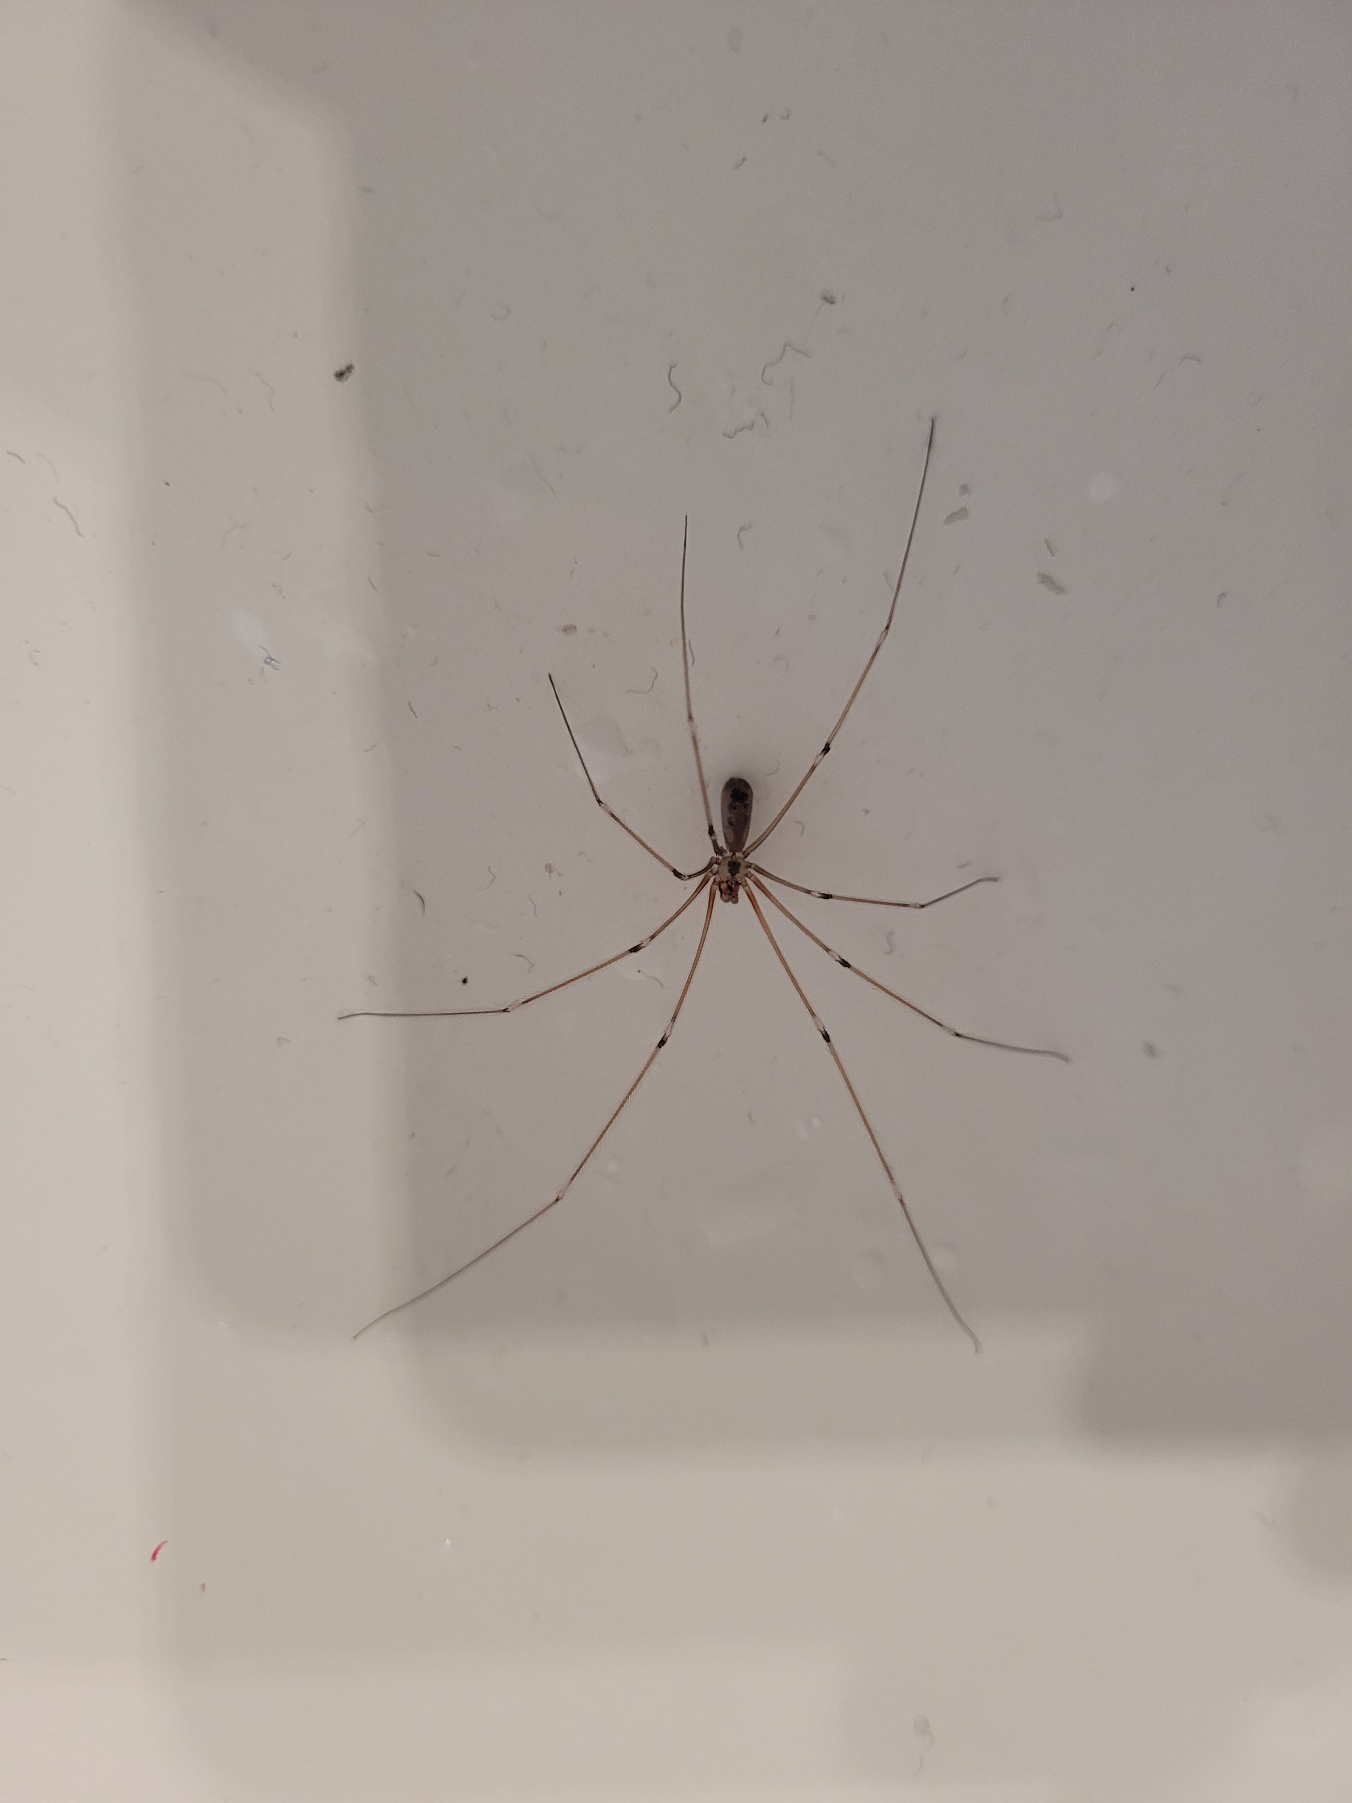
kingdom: Animalia
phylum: Arthropoda
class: Arachnida
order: Araneae
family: Pholcidae
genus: Pholcus
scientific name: Pholcus phalangioides
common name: Mejeredderkop
